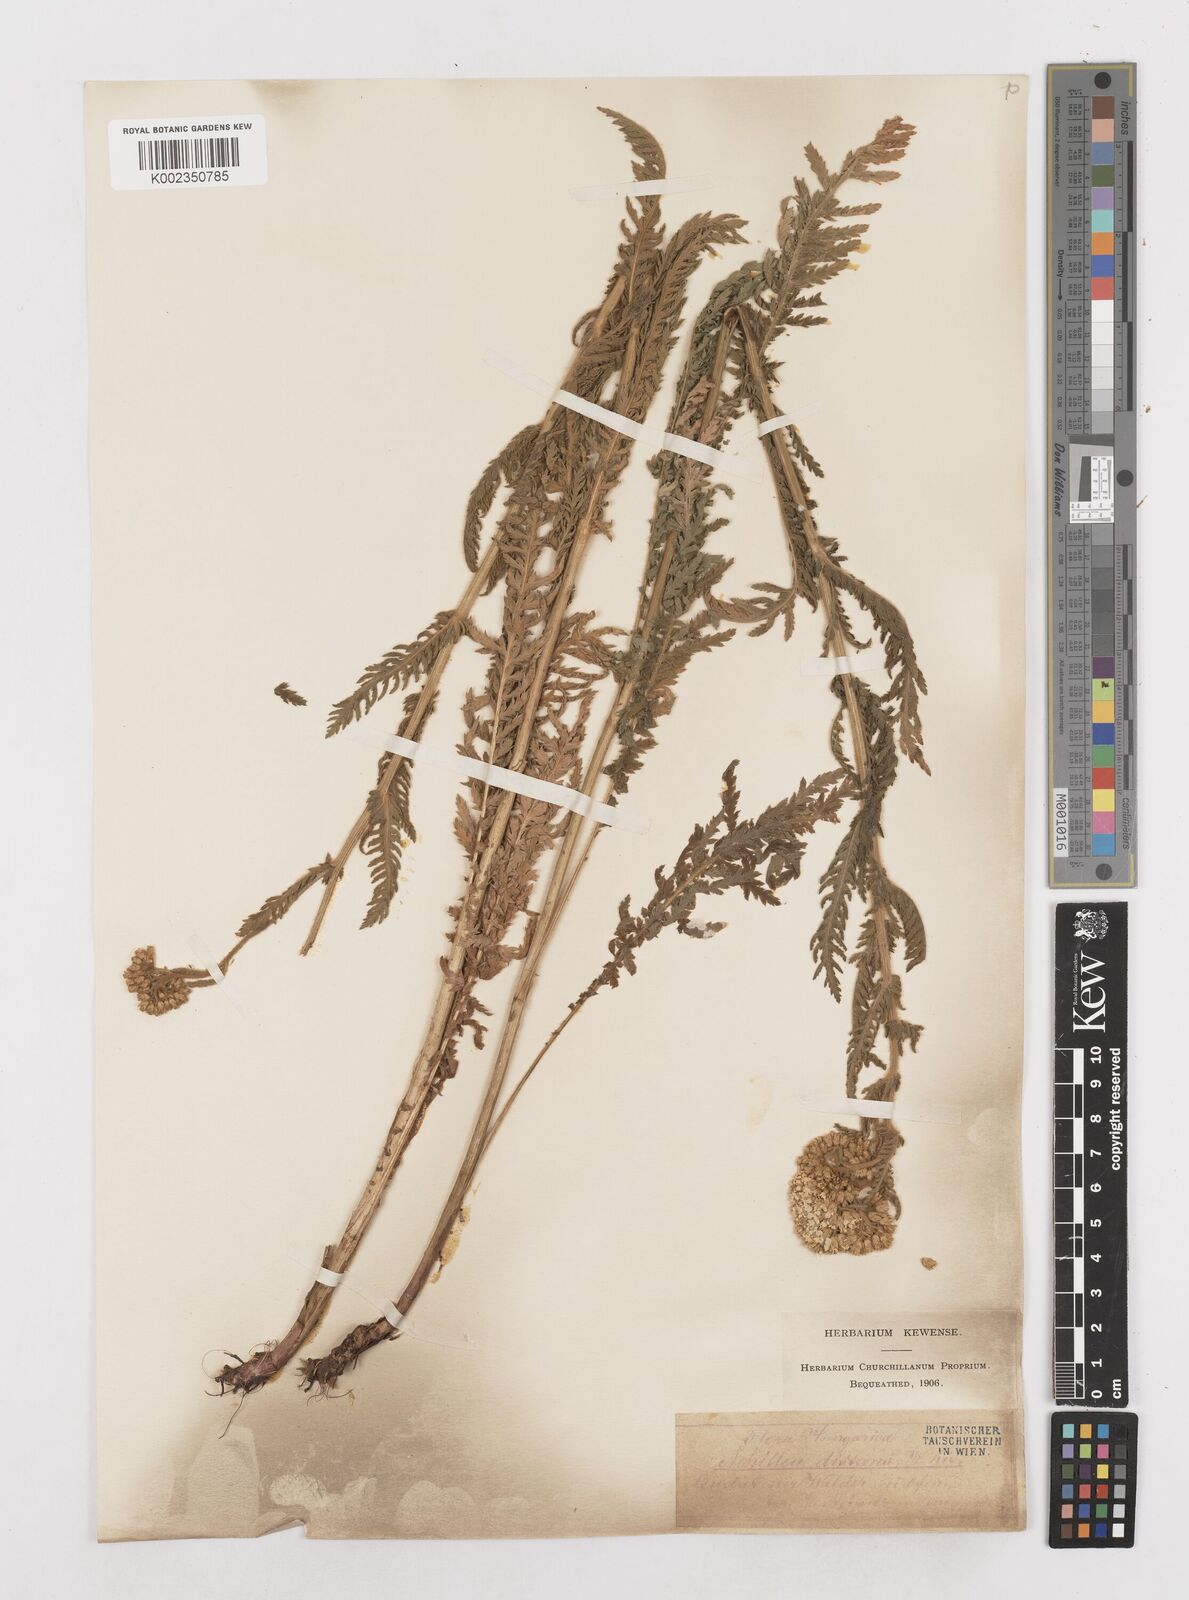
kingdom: Plantae
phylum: Tracheophyta
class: Magnoliopsida
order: Asterales
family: Asteraceae
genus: Achillea
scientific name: Achillea distans
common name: Tall yarrow
